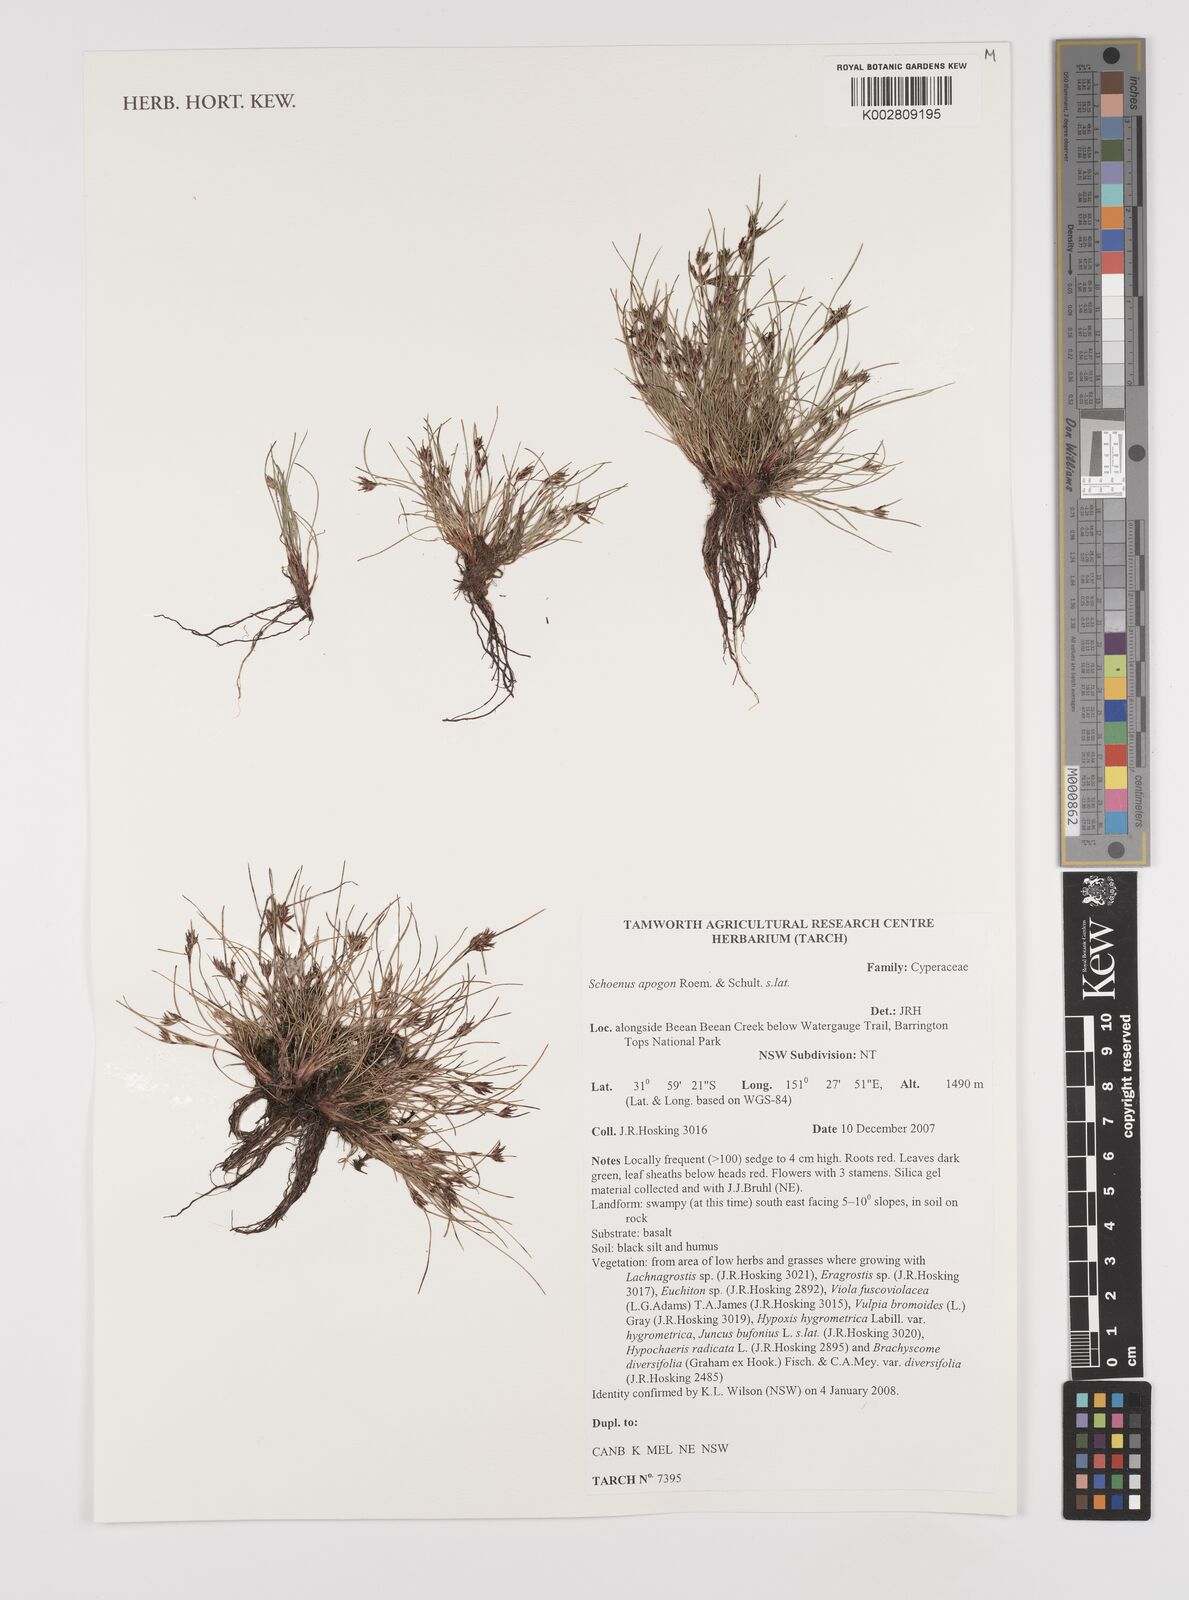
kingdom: Plantae
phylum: Tracheophyta
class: Liliopsida
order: Poales
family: Cyperaceae
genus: Schoenus
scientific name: Schoenus apogon
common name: Smooth bogrush
